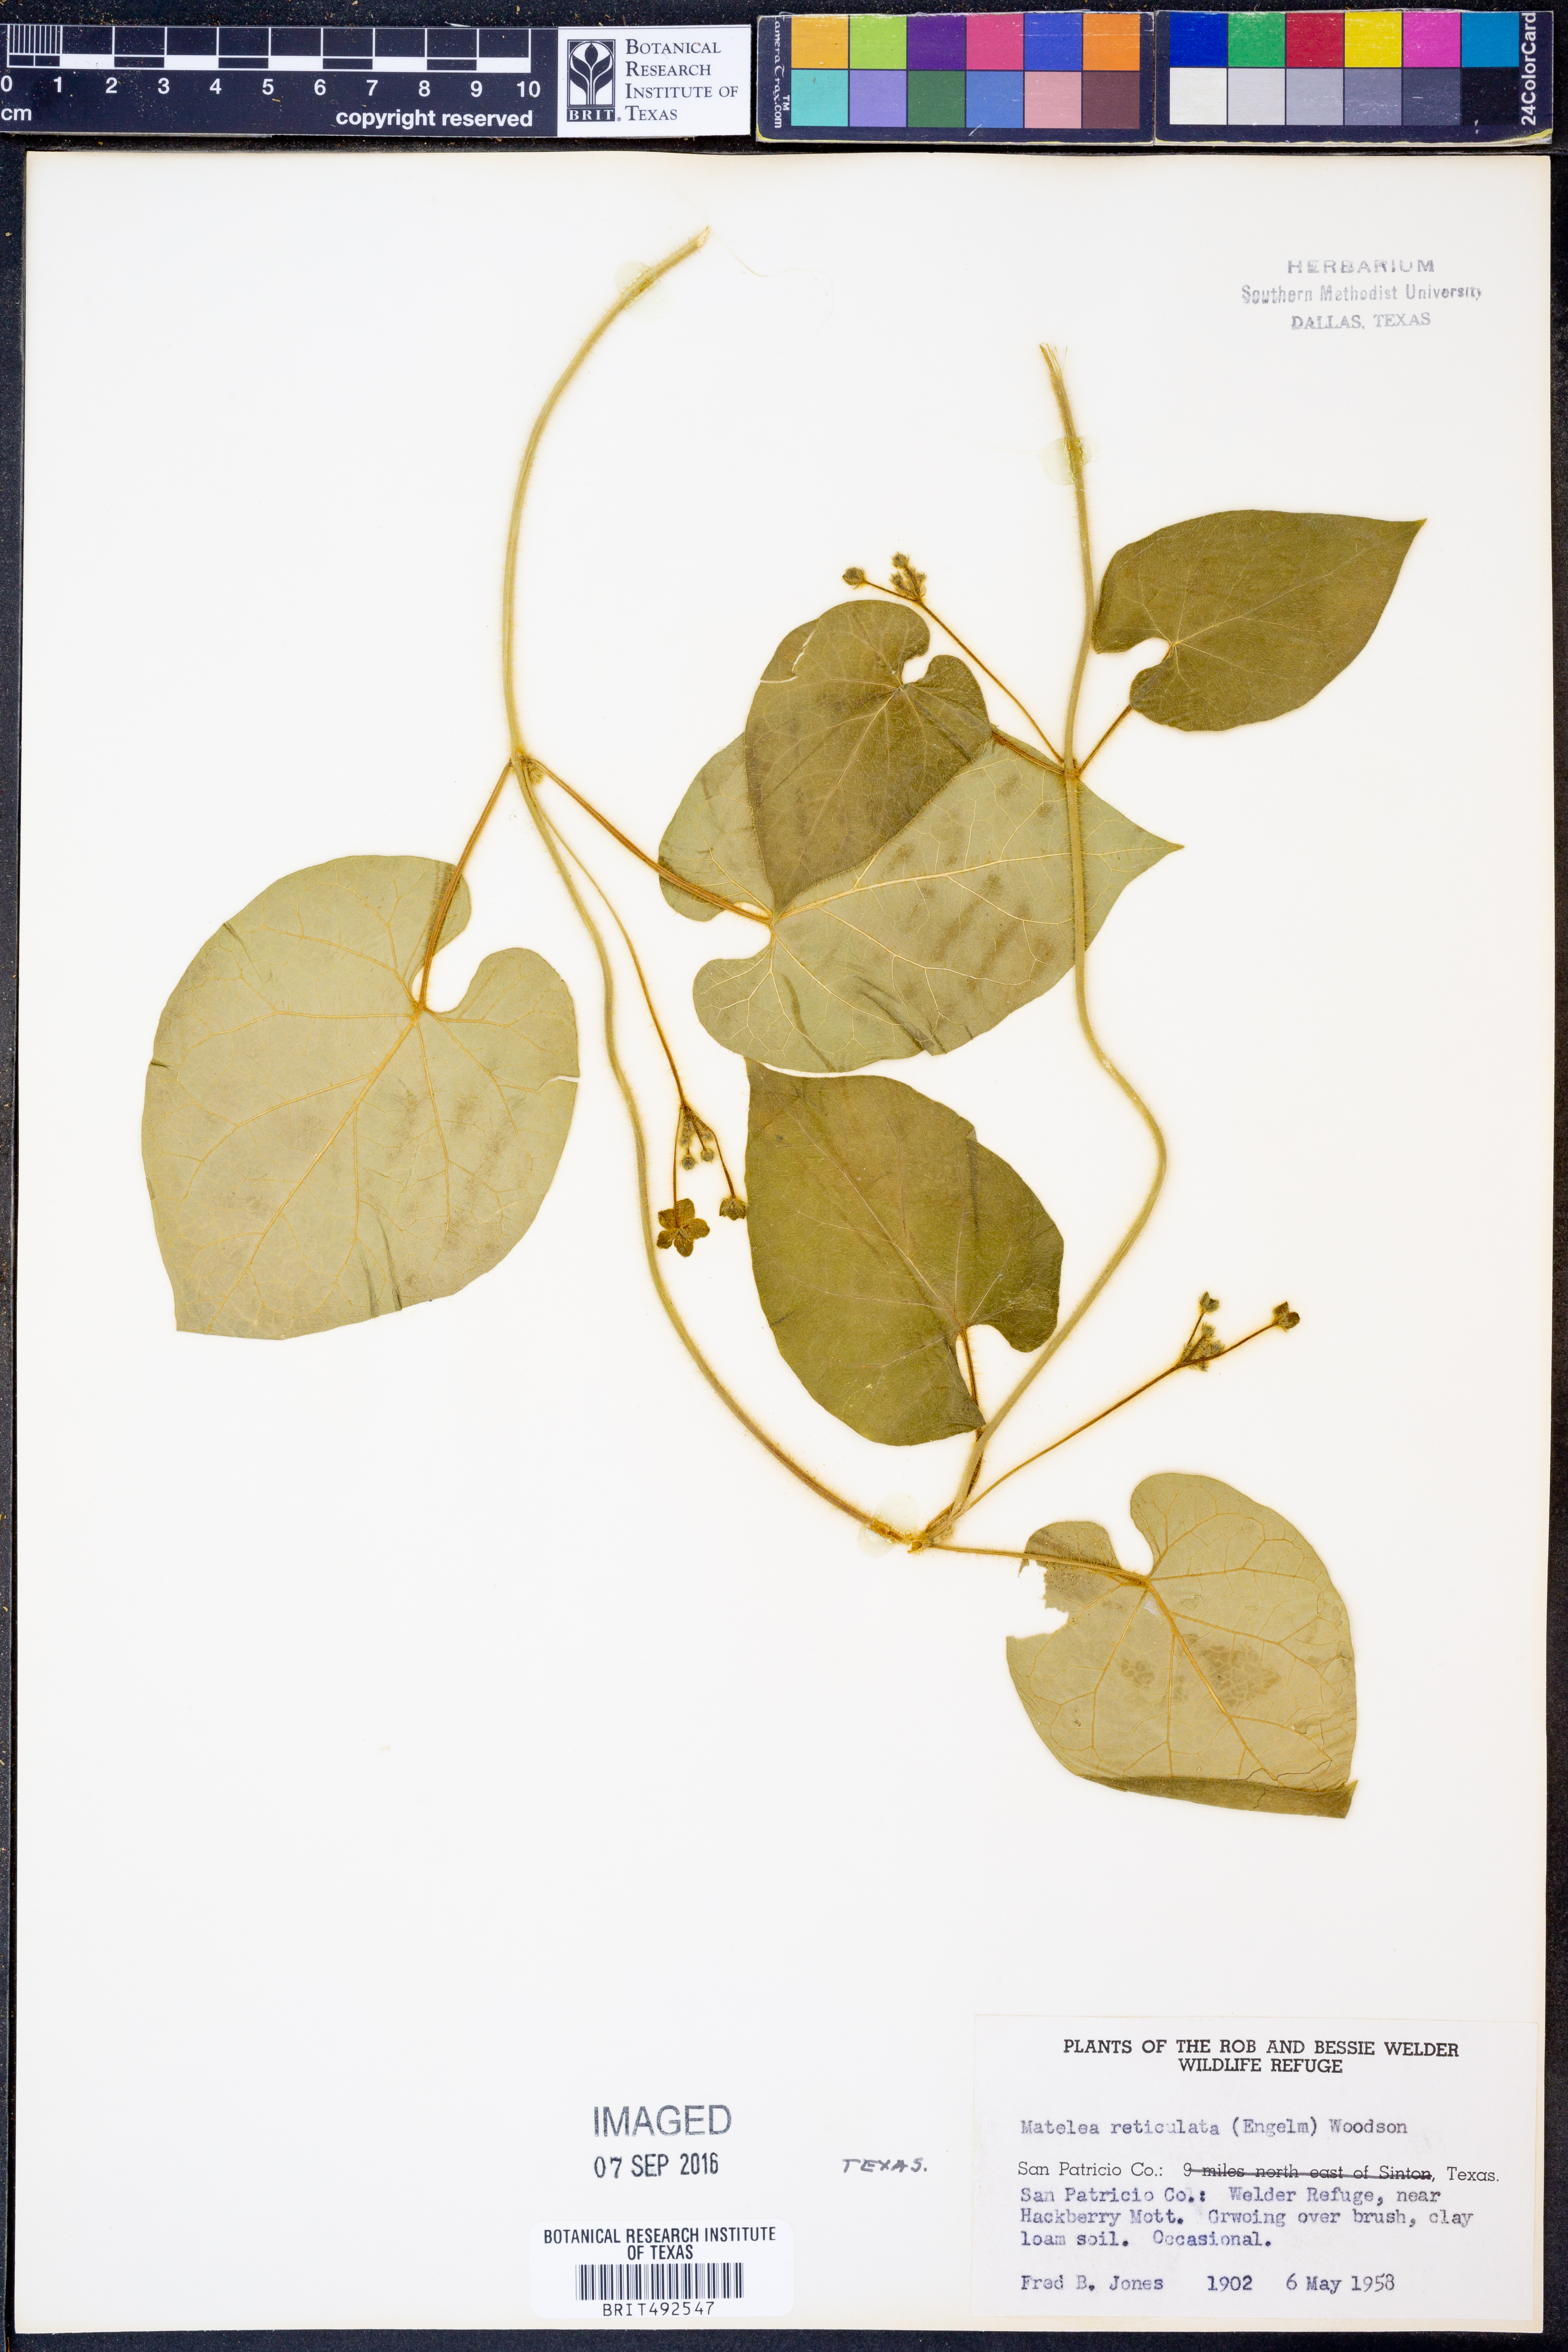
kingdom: Plantae
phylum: Tracheophyta
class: Magnoliopsida
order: Gentianales
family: Apocynaceae
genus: Dictyanthus
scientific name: Dictyanthus reticulatus
